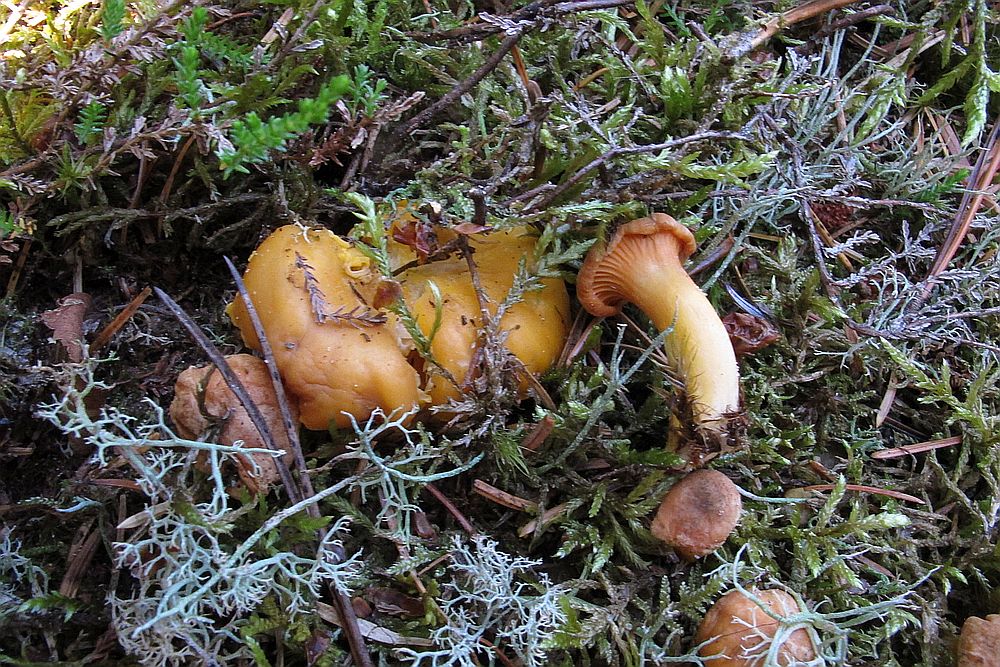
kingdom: Fungi
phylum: Basidiomycota
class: Agaricomycetes
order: Cantharellales
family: Hydnaceae
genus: Cantharellus
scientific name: Cantharellus cibarius
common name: almindelig kantarel
